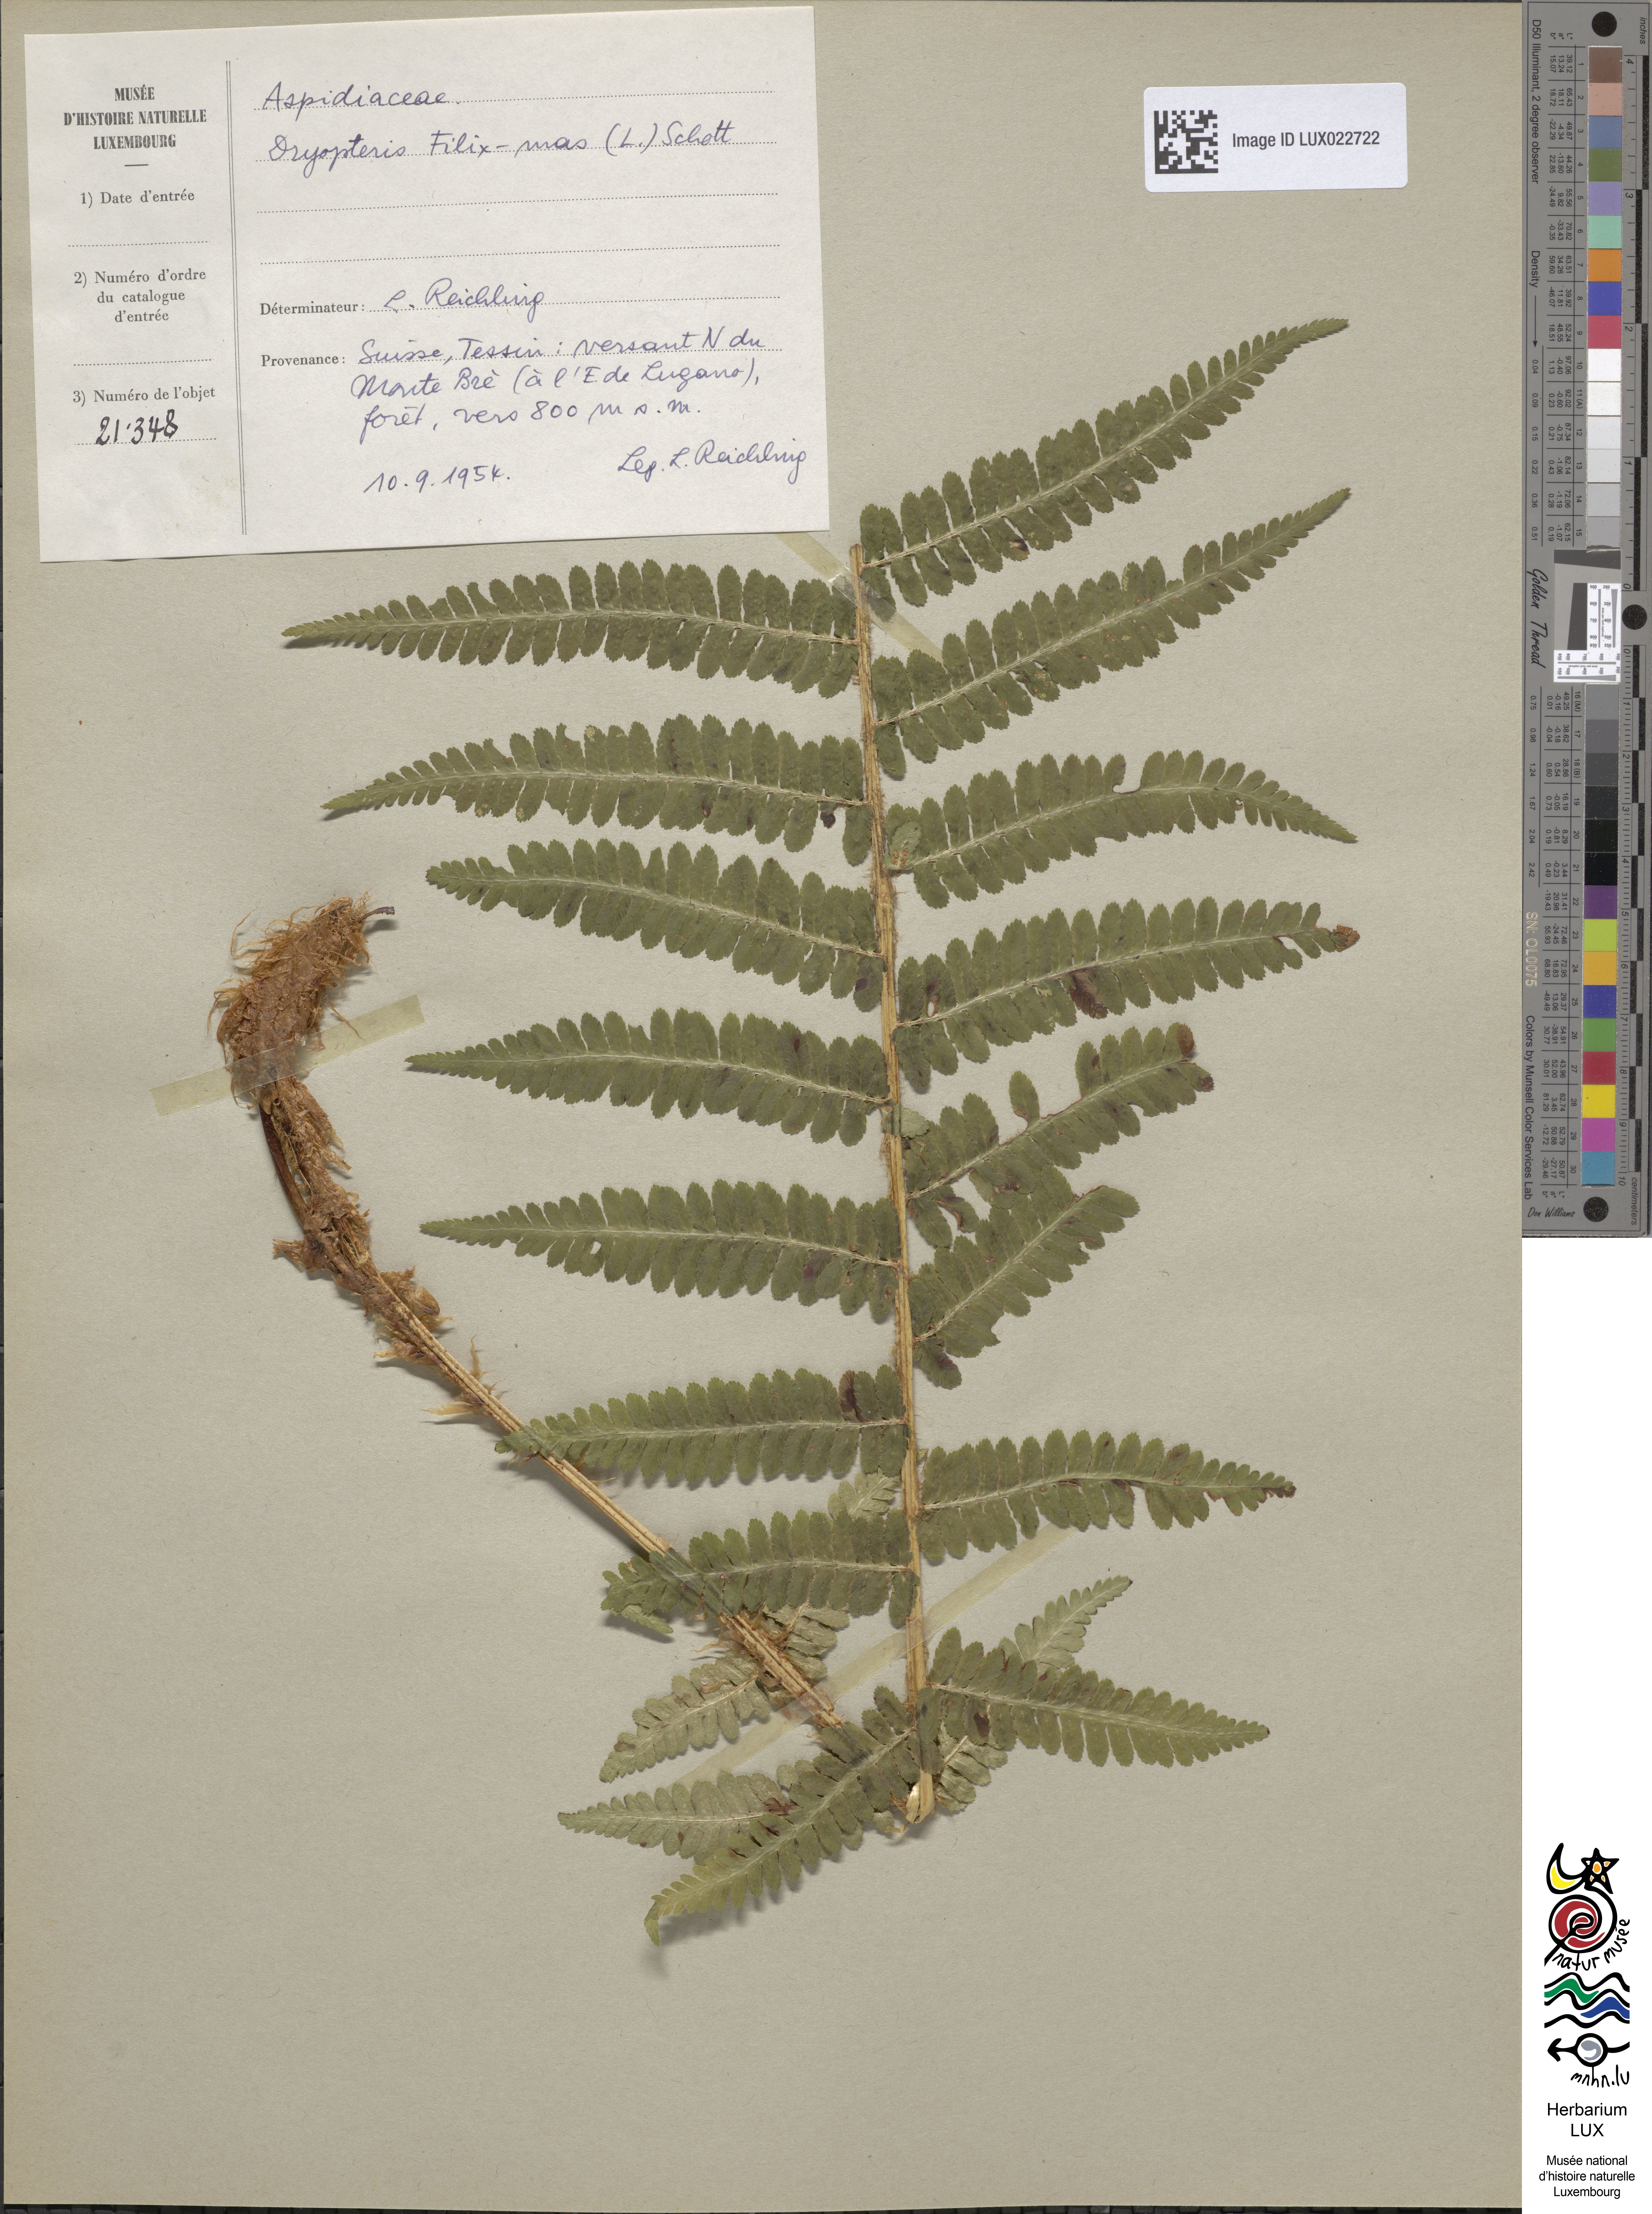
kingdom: Plantae
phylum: Tracheophyta
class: Polypodiopsida
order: Polypodiales
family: Dryopteridaceae
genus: Dryopteris
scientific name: Dryopteris filix-mas
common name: Male fern
